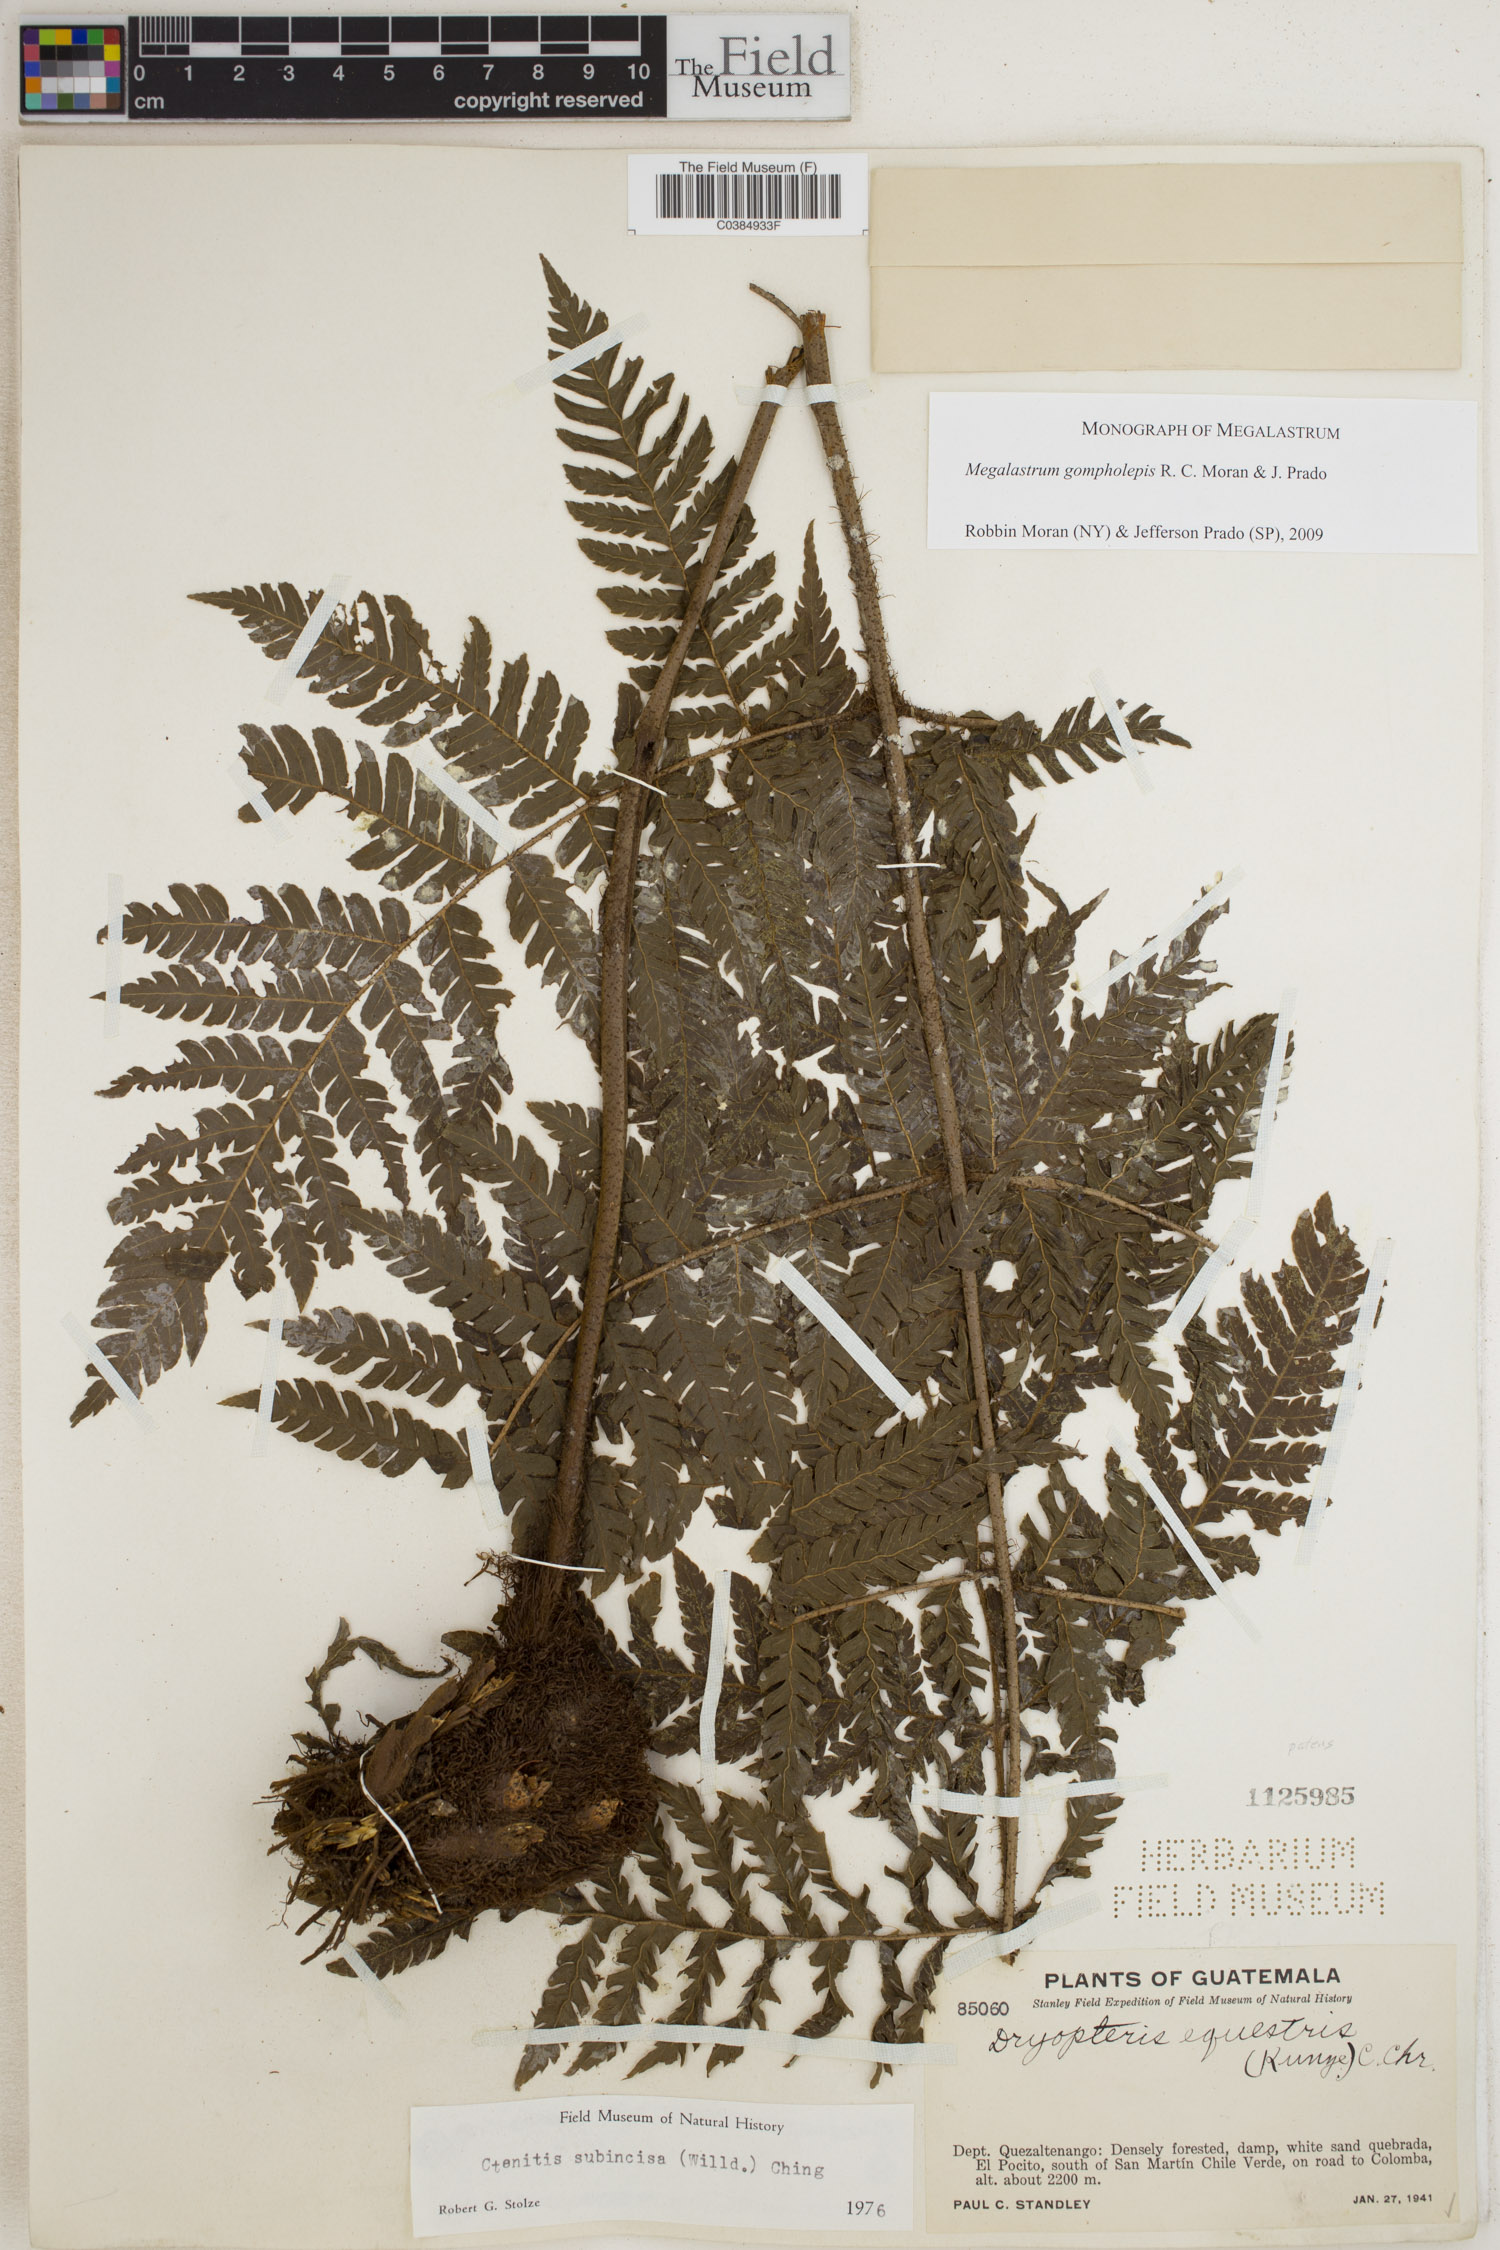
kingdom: Plantae
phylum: Tracheophyta
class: Polypodiopsida
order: Polypodiales
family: Dryopteridaceae
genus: Megalastrum
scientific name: Megalastrum gompholepis
